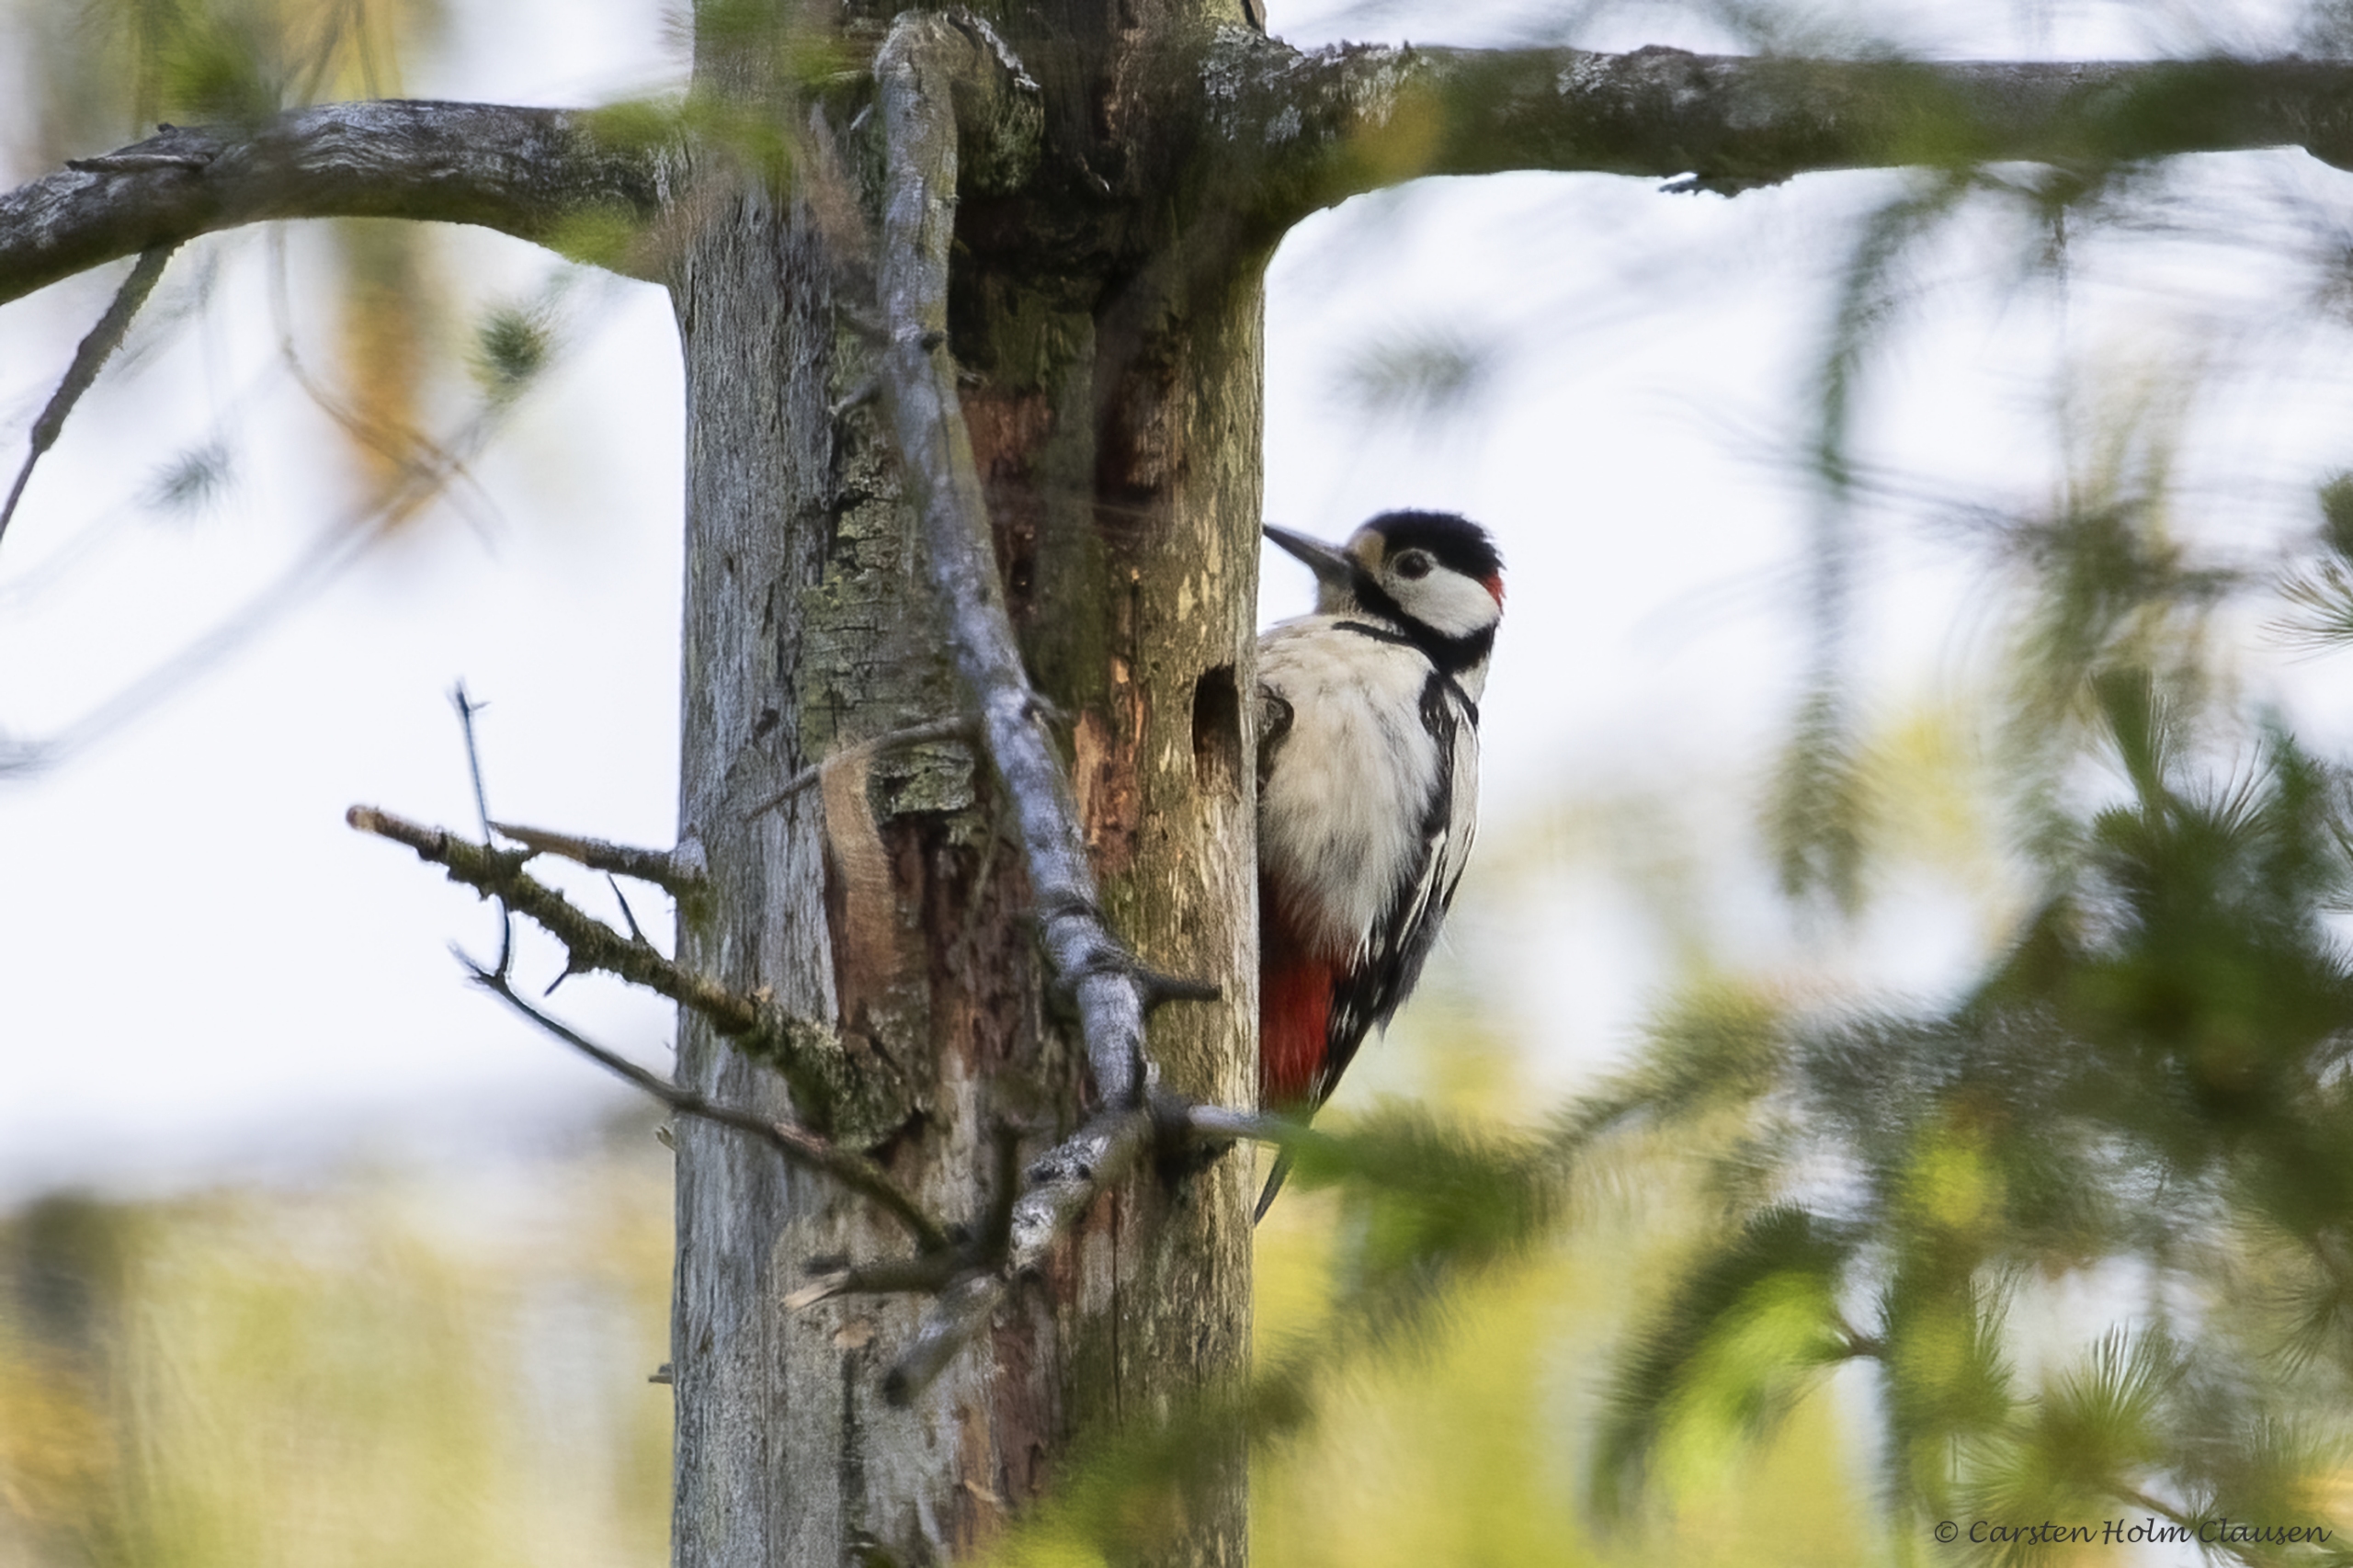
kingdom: Animalia
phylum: Chordata
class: Aves
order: Piciformes
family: Picidae
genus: Dendrocopos
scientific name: Dendrocopos major
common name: Stor flagspætte
